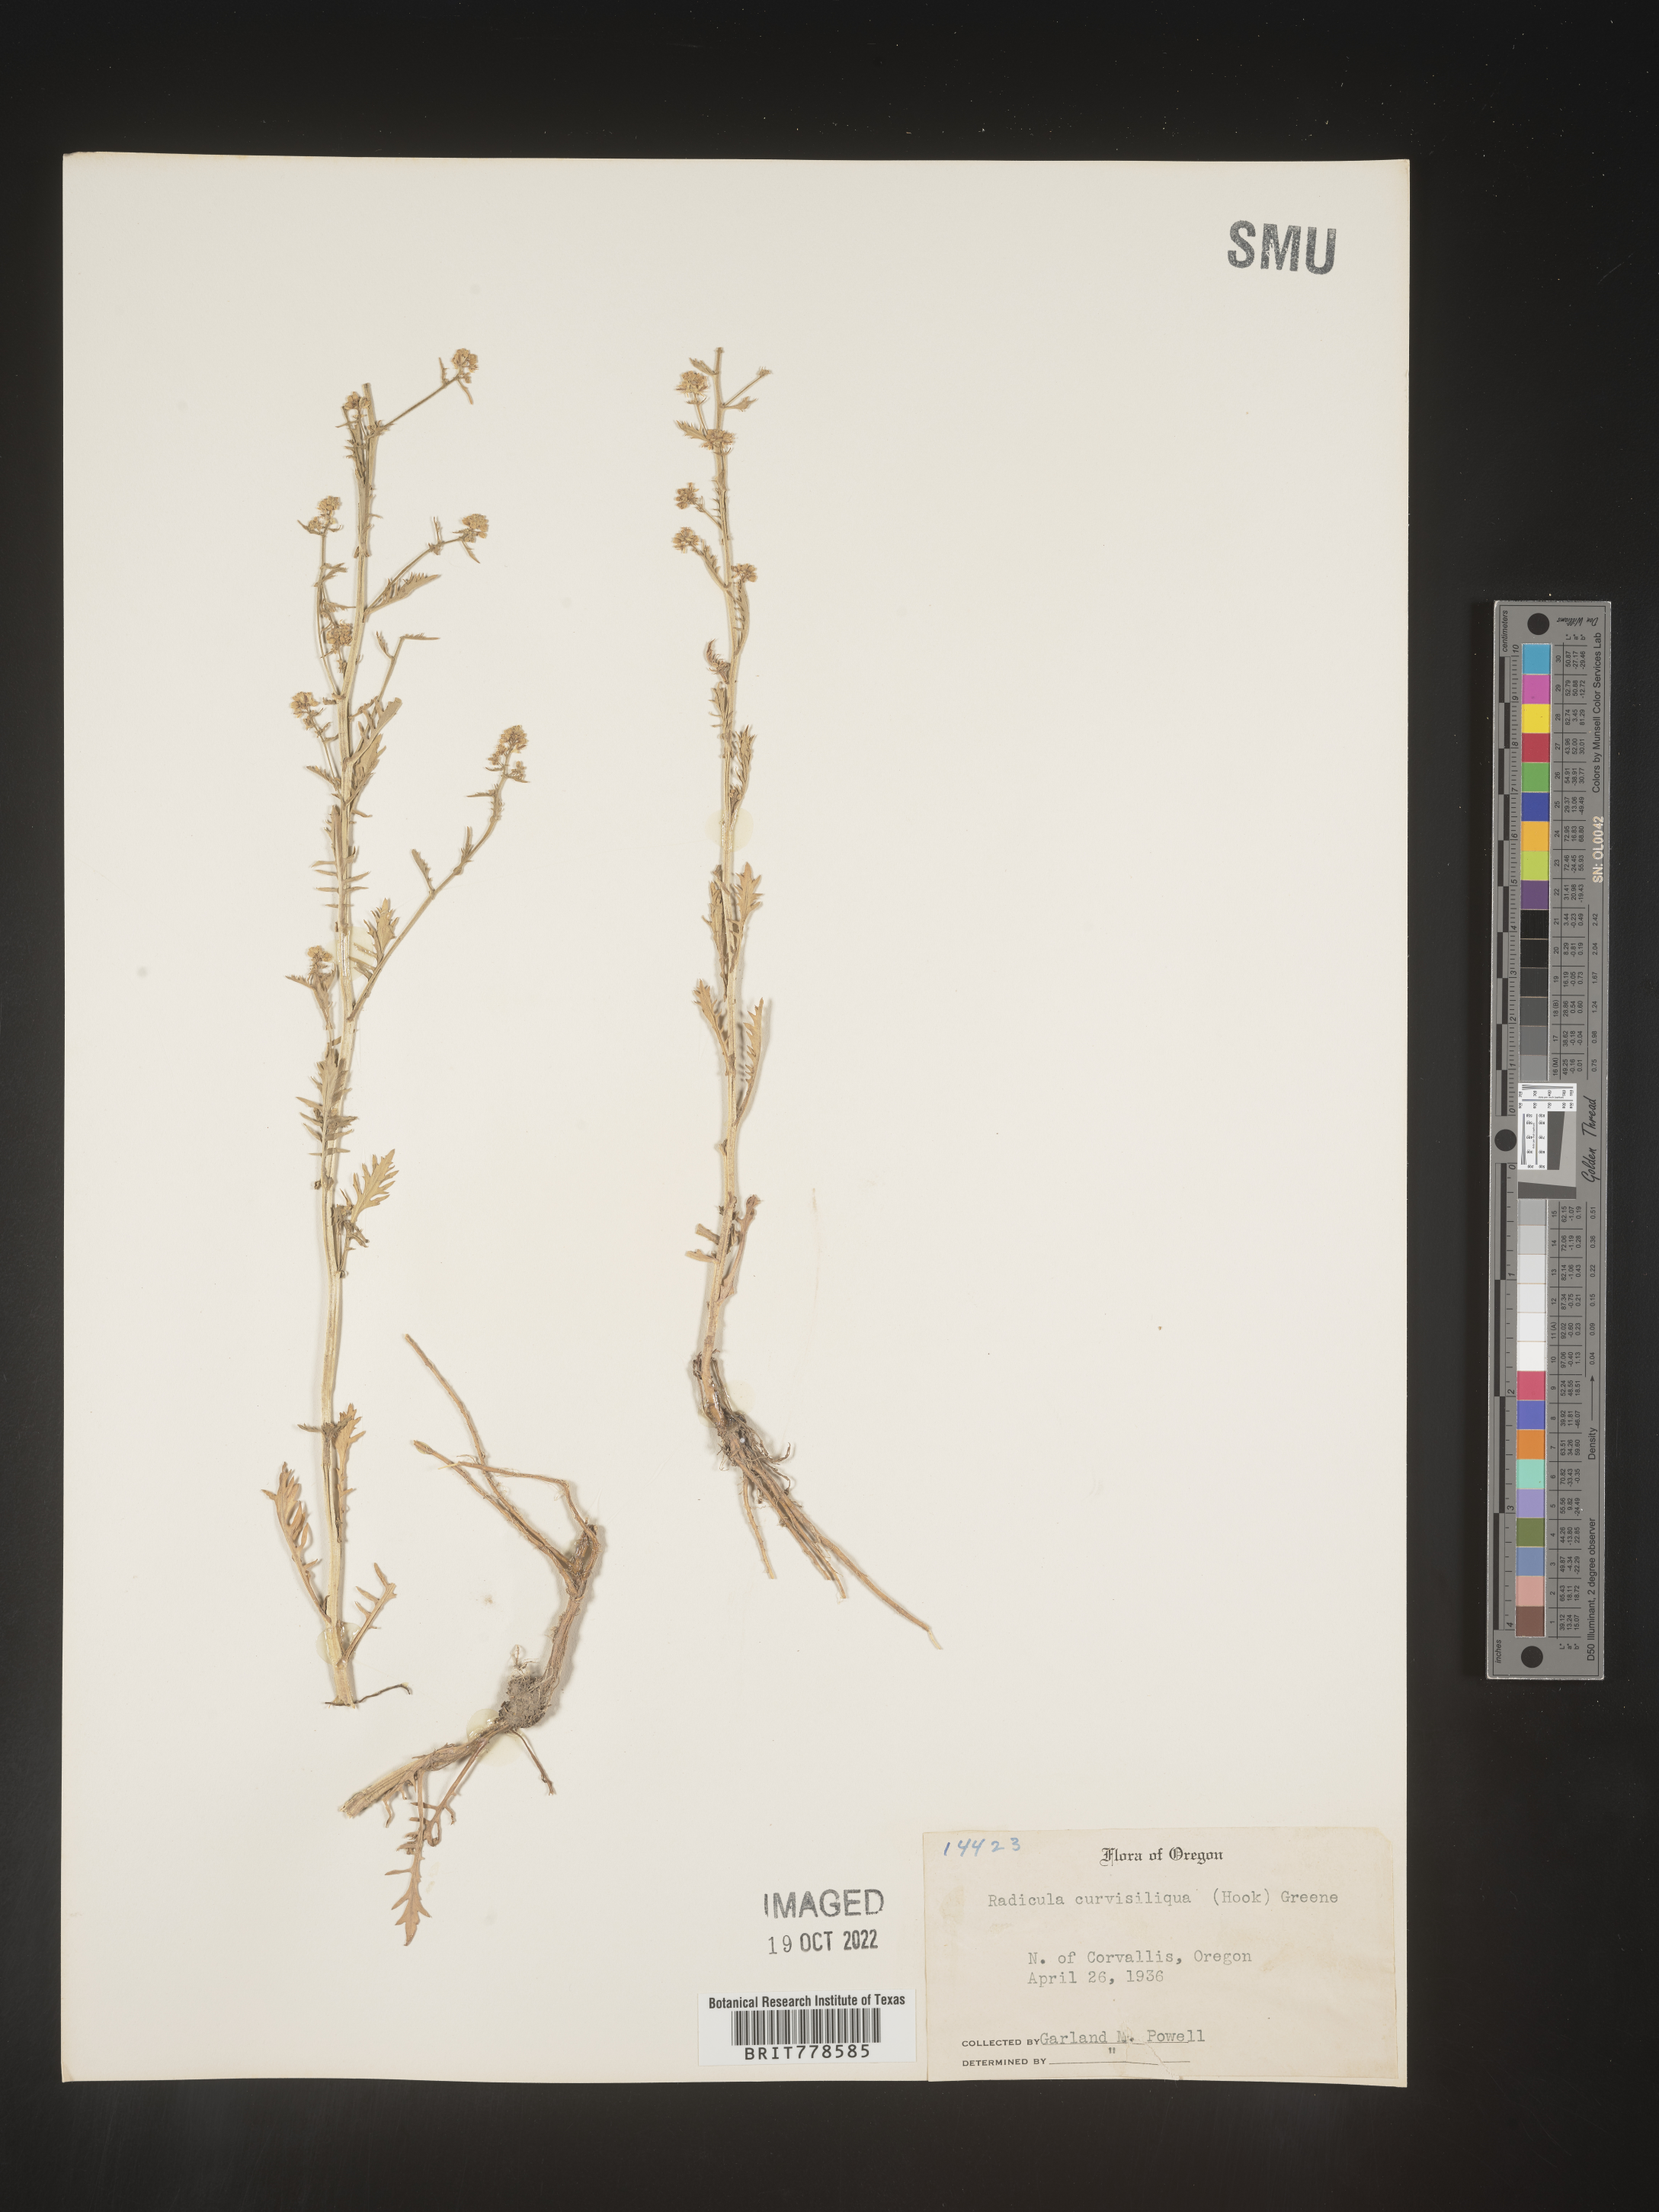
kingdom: Plantae
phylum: Tracheophyta
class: Magnoliopsida
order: Brassicales
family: Brassicaceae
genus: Rorippa
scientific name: Rorippa
